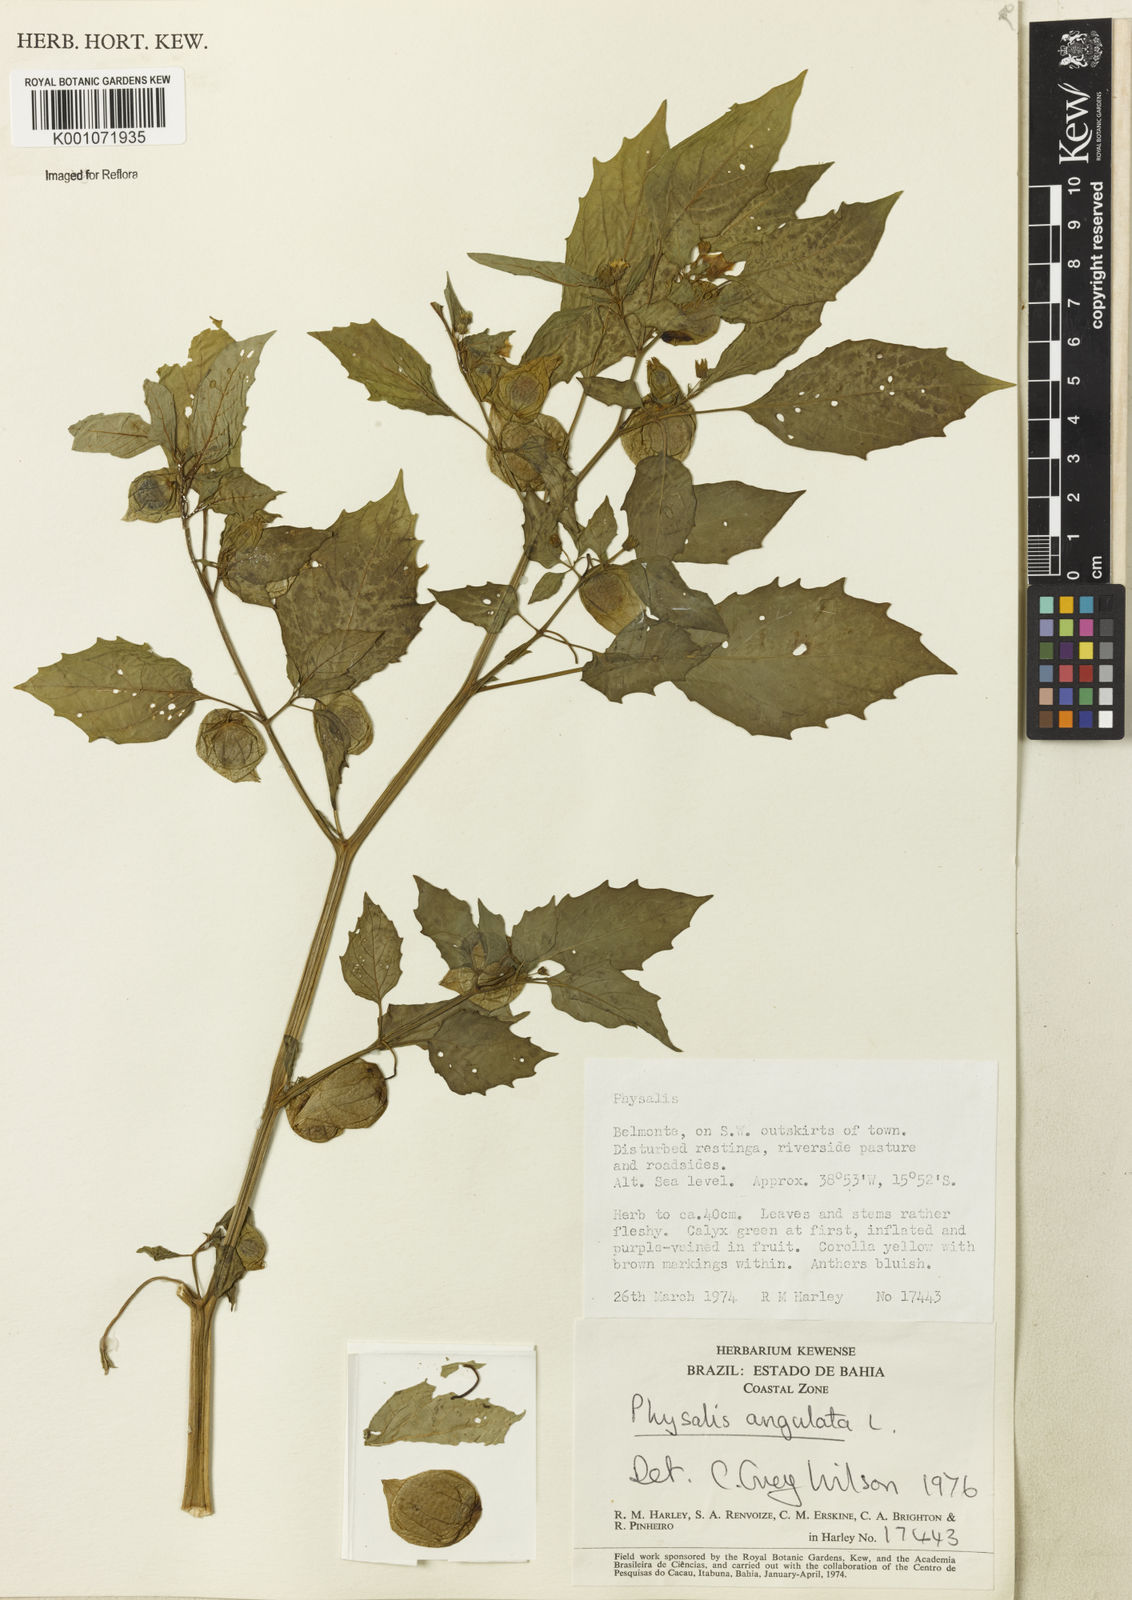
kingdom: Plantae
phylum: Tracheophyta
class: Magnoliopsida
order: Solanales
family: Solanaceae
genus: Physalis
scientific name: Physalis angulata
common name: Angular winter-cherry
